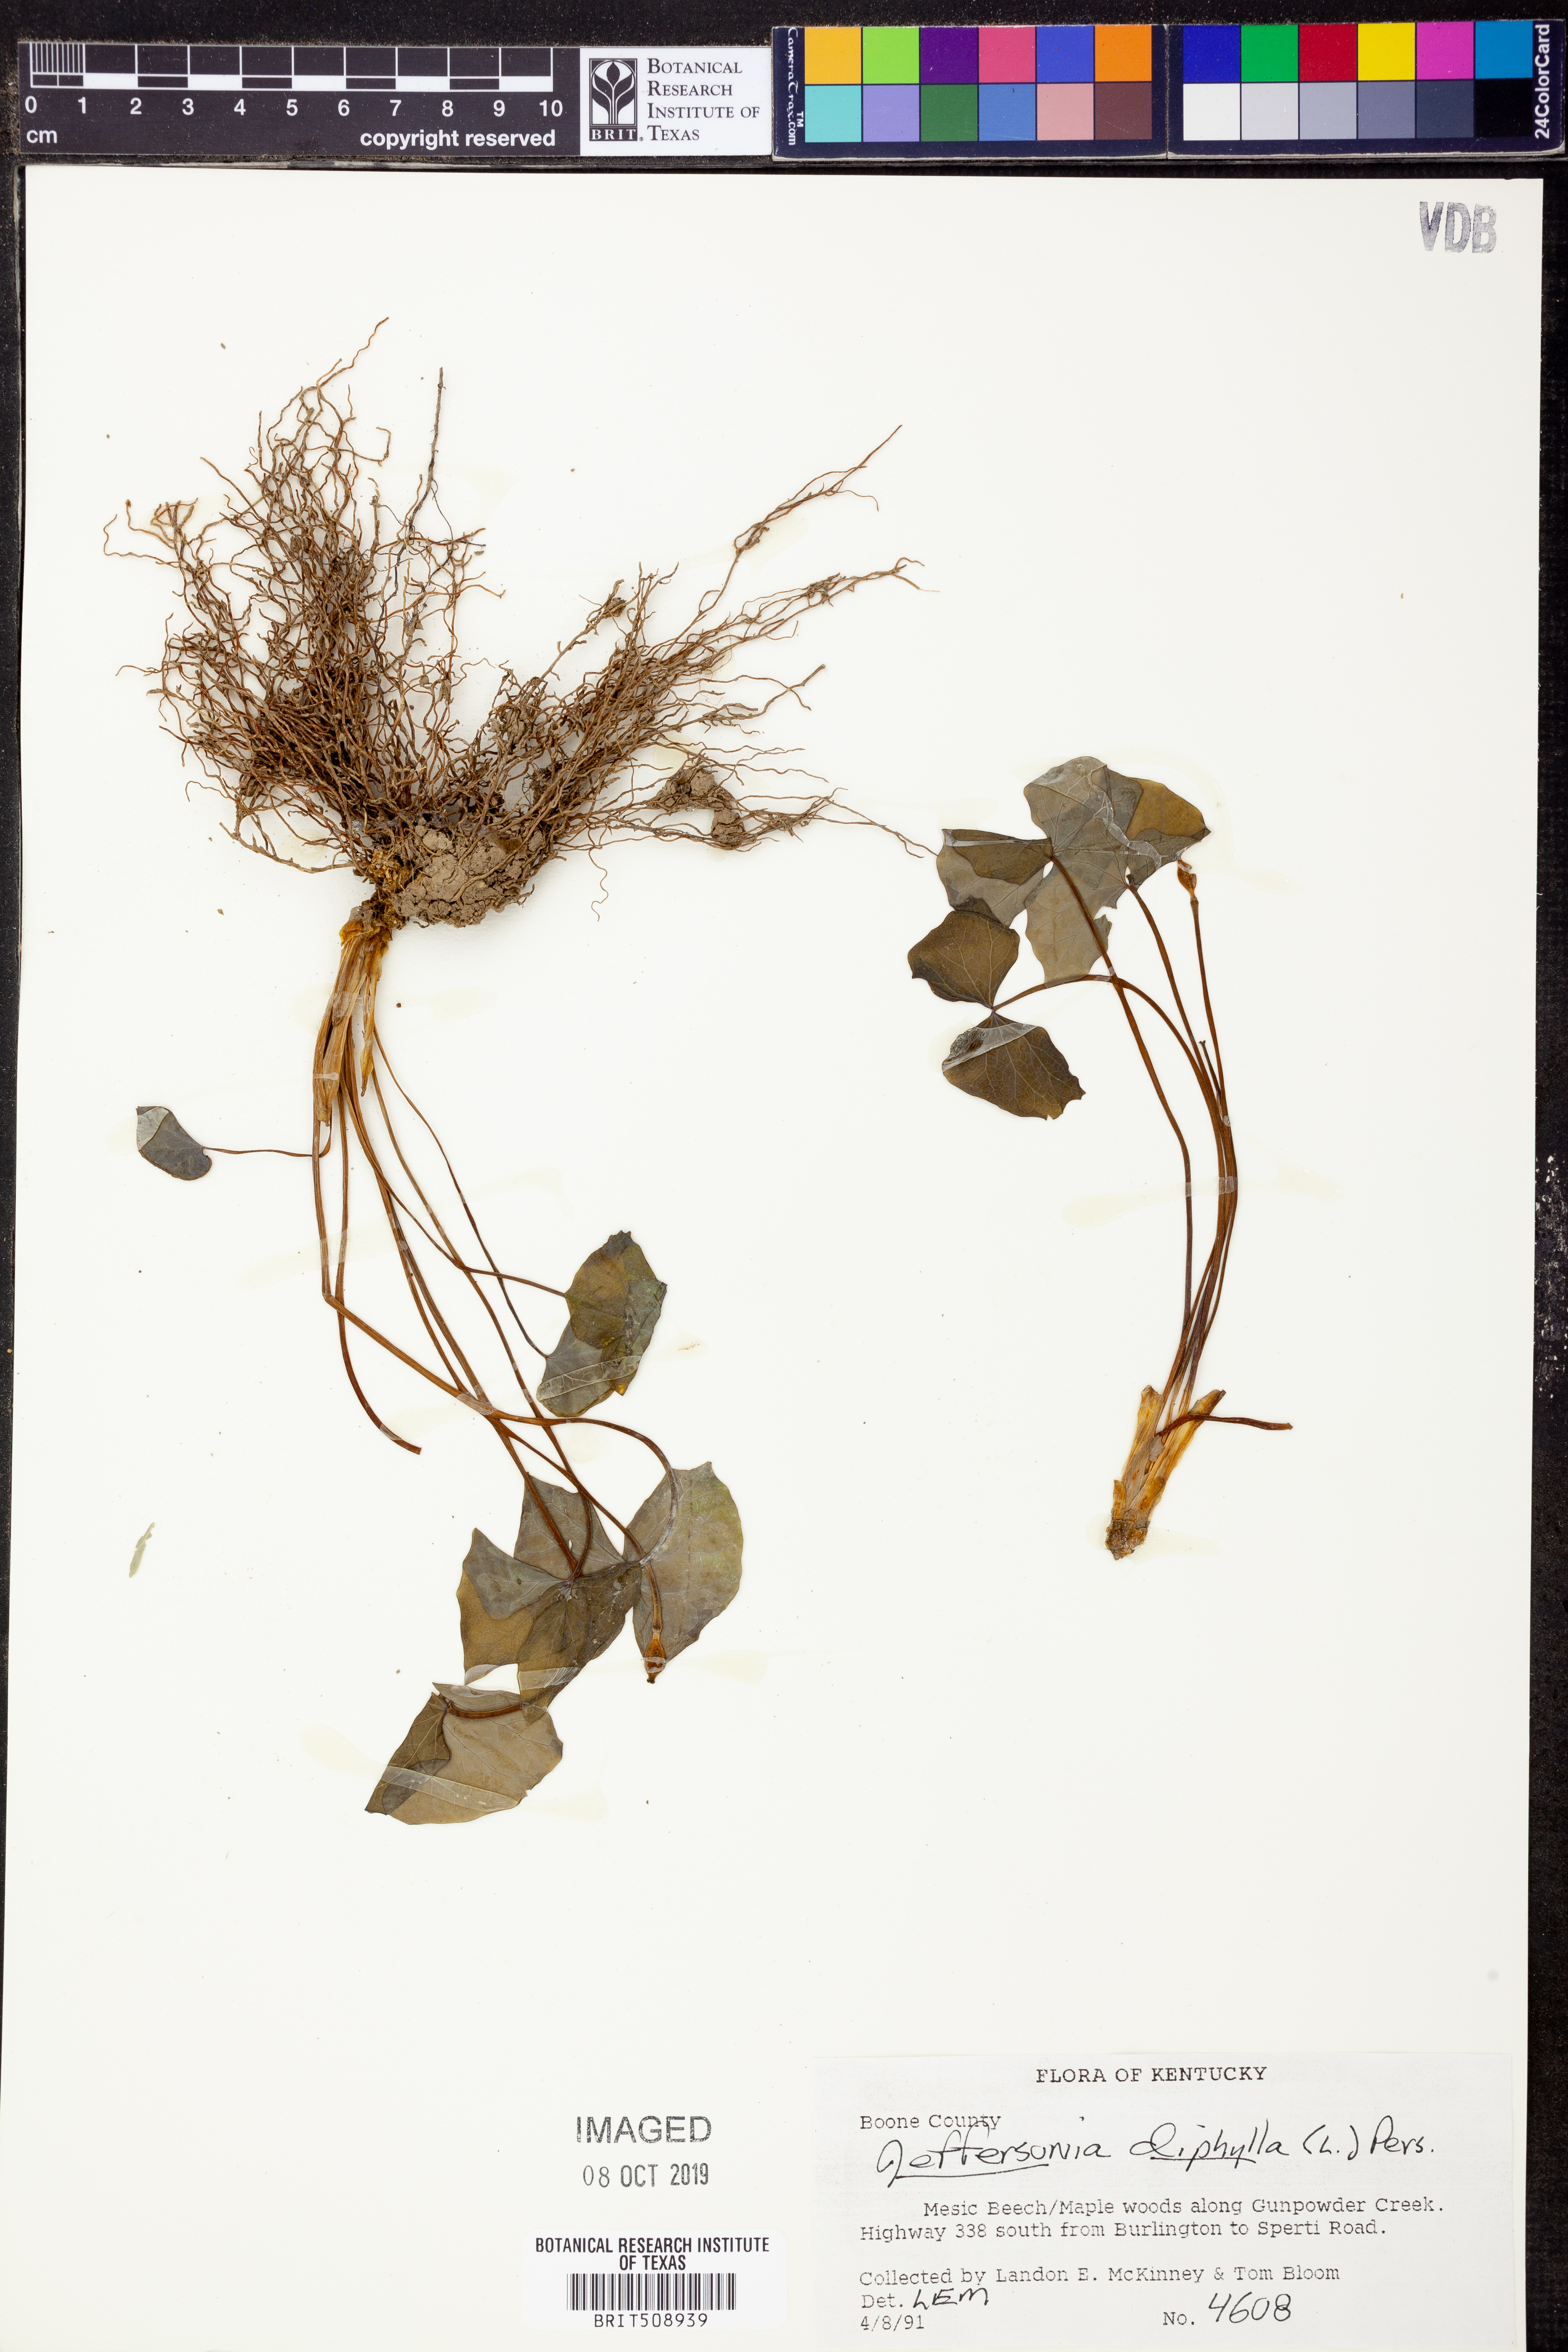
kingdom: Plantae
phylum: Tracheophyta
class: Magnoliopsida
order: Ranunculales
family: Berberidaceae
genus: Jeffersonia
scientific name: Jeffersonia diphylla
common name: Rheumatism-root
